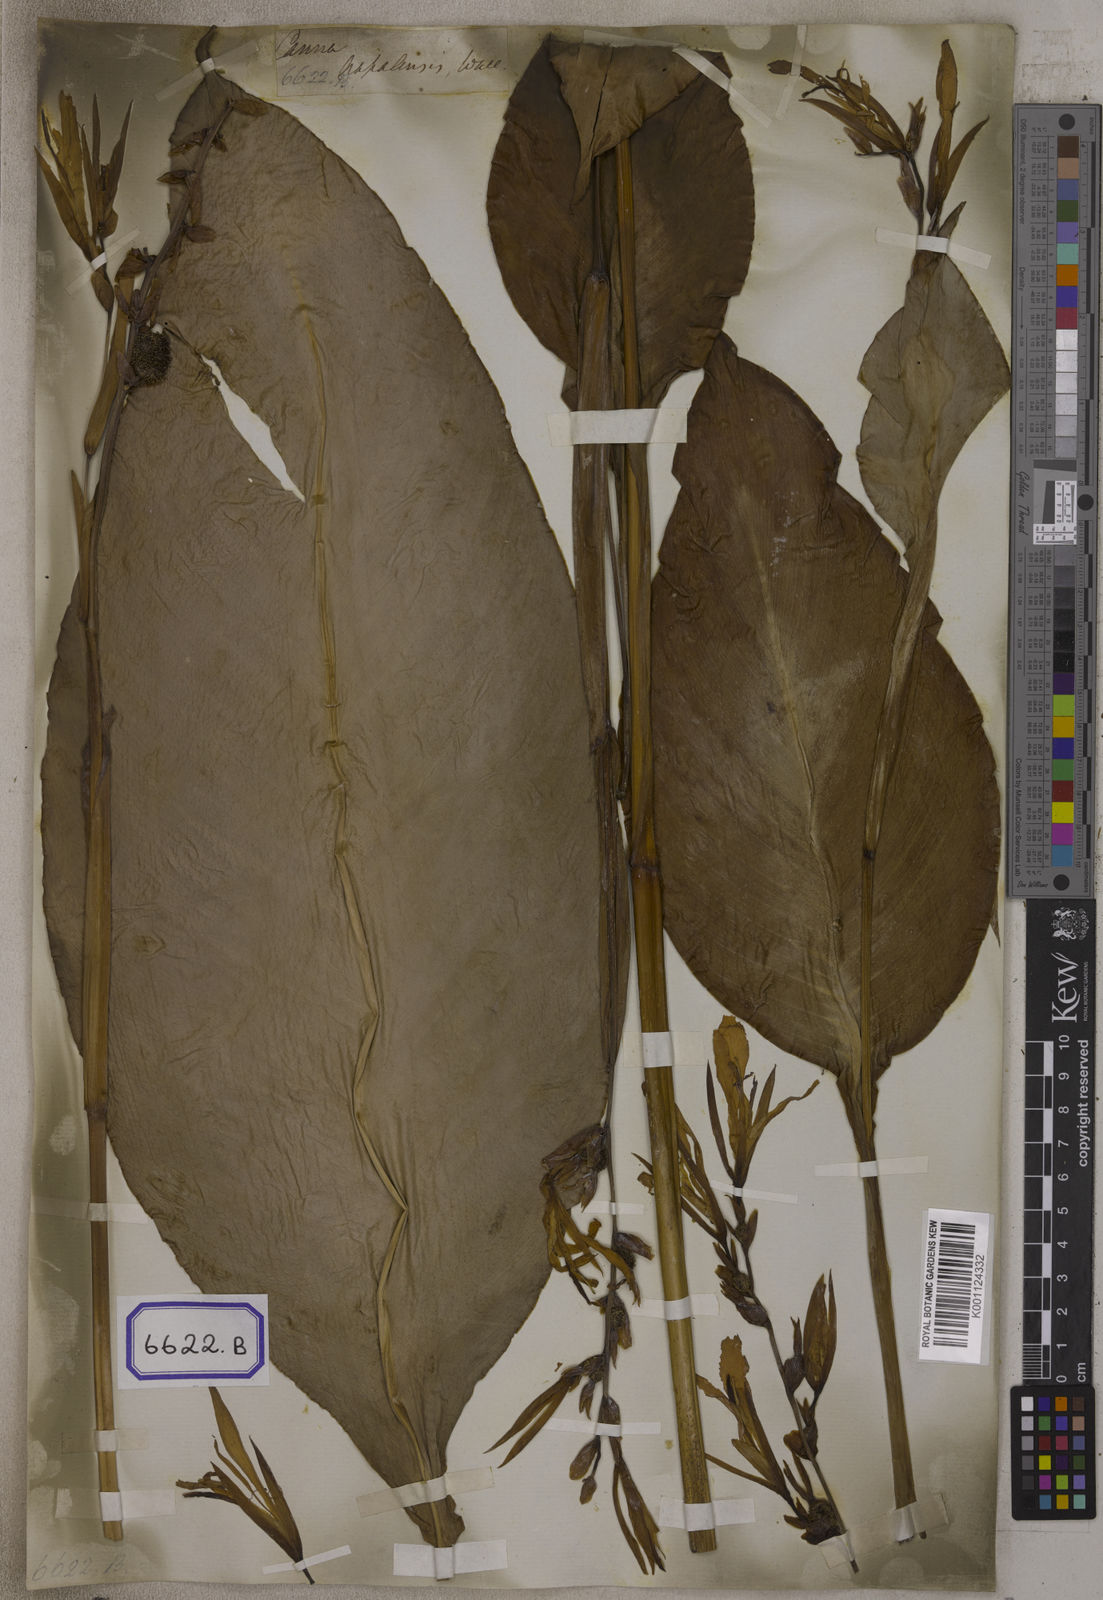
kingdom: Plantae
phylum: Tracheophyta
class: Liliopsida
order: Zingiberales
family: Cannaceae
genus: Canna
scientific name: Canna
